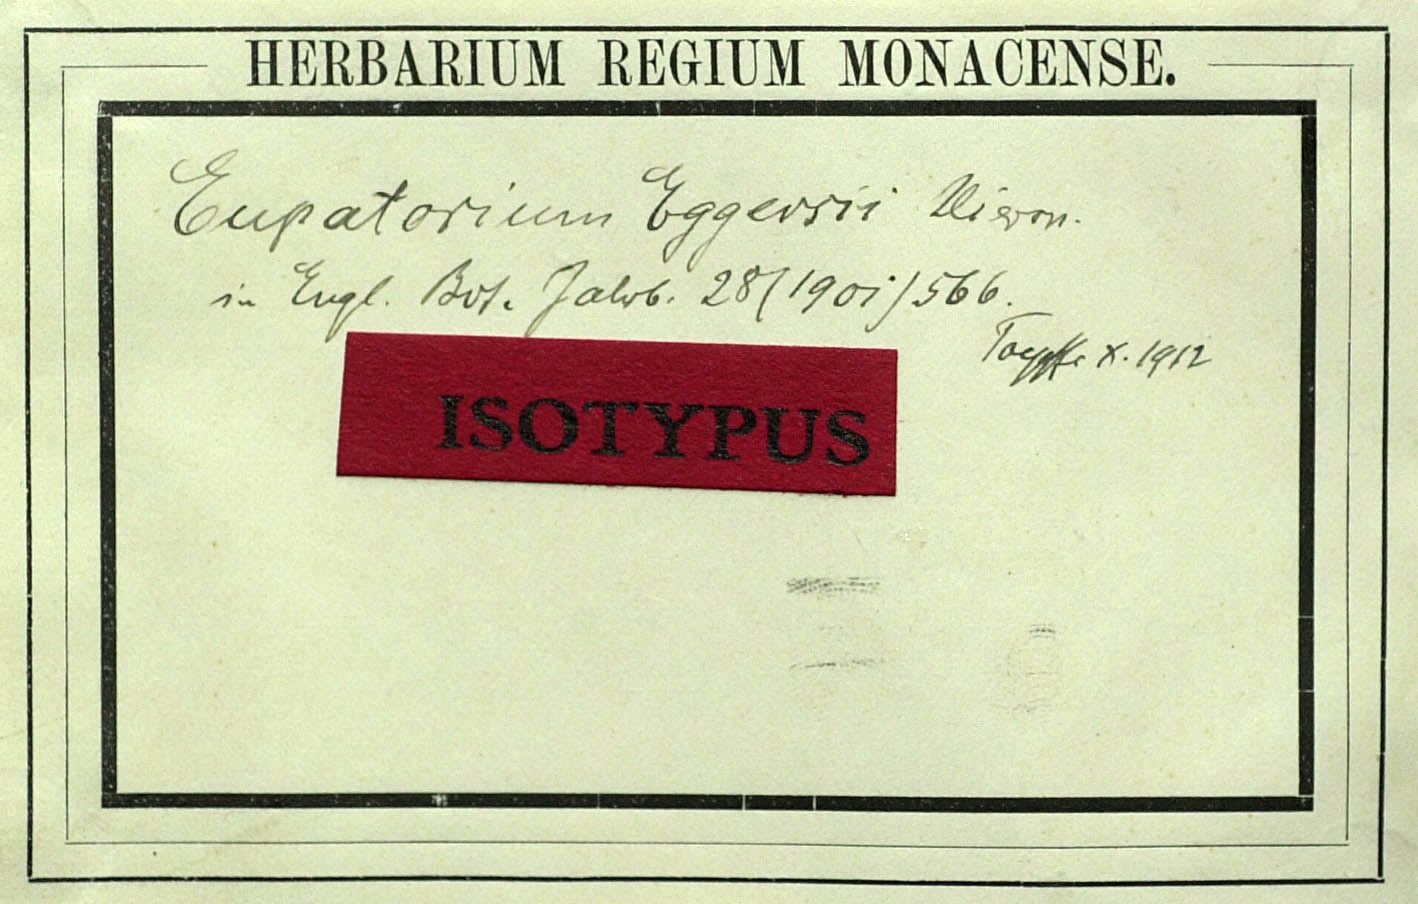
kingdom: Plantae
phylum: Tracheophyta
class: Magnoliopsida
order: Asterales
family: Asteraceae
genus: Critonia
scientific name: Critonia billbergiana
